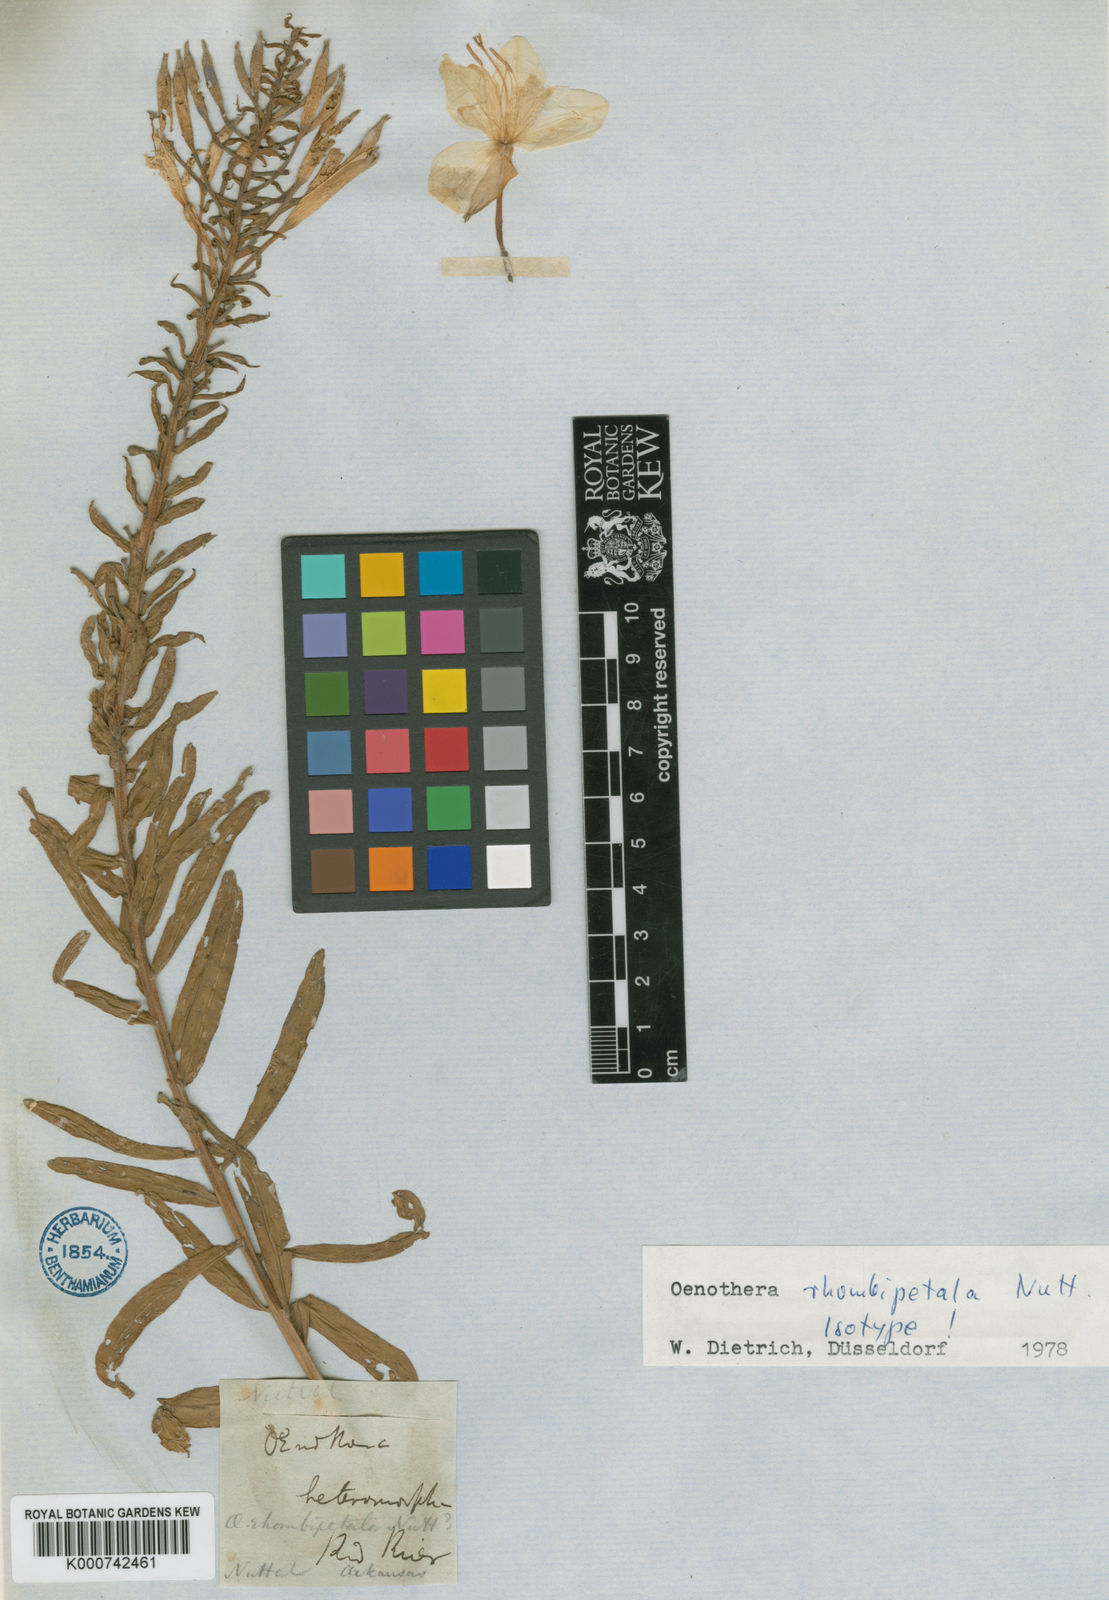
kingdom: Plantae
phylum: Tracheophyta
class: Magnoliopsida
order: Myrtales
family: Onagraceae
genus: Oenothera
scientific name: Oenothera
